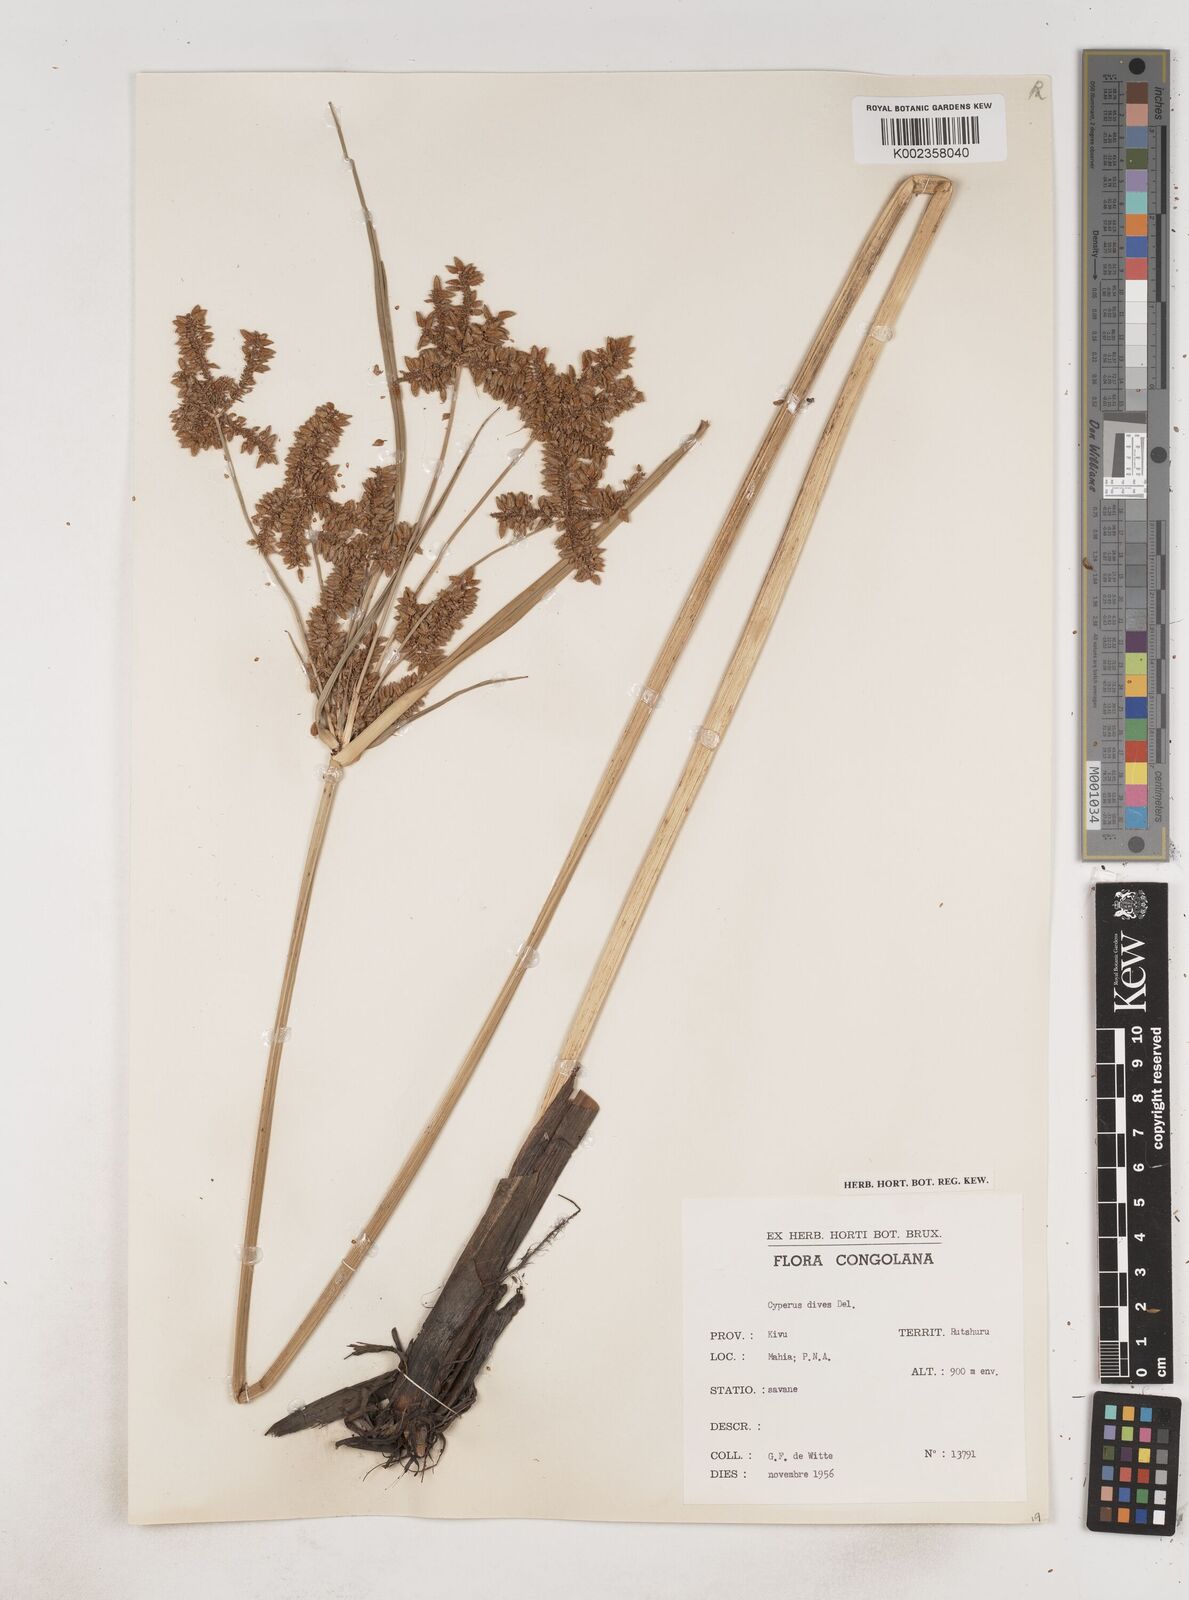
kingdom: Plantae
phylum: Tracheophyta
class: Liliopsida
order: Poales
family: Cyperaceae
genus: Cyperus
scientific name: Cyperus dives
